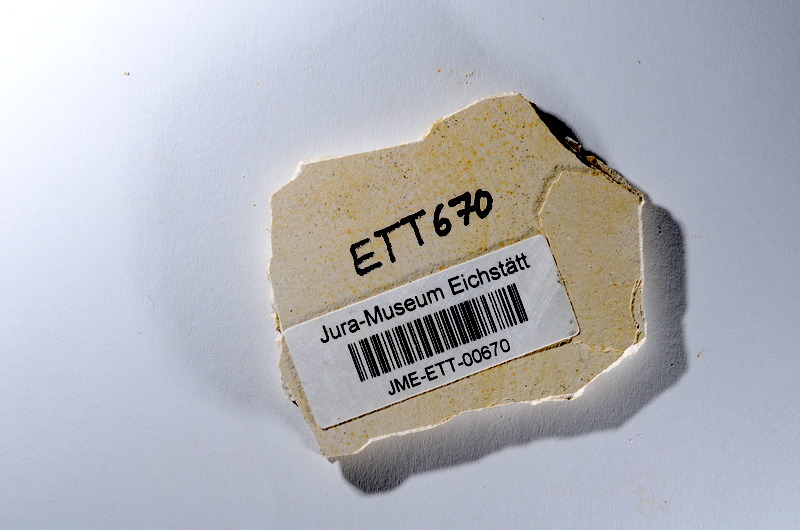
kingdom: Animalia
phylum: Chordata
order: Salmoniformes
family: Orthogonikleithridae
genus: Orthogonikleithrus
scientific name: Orthogonikleithrus hoelli
